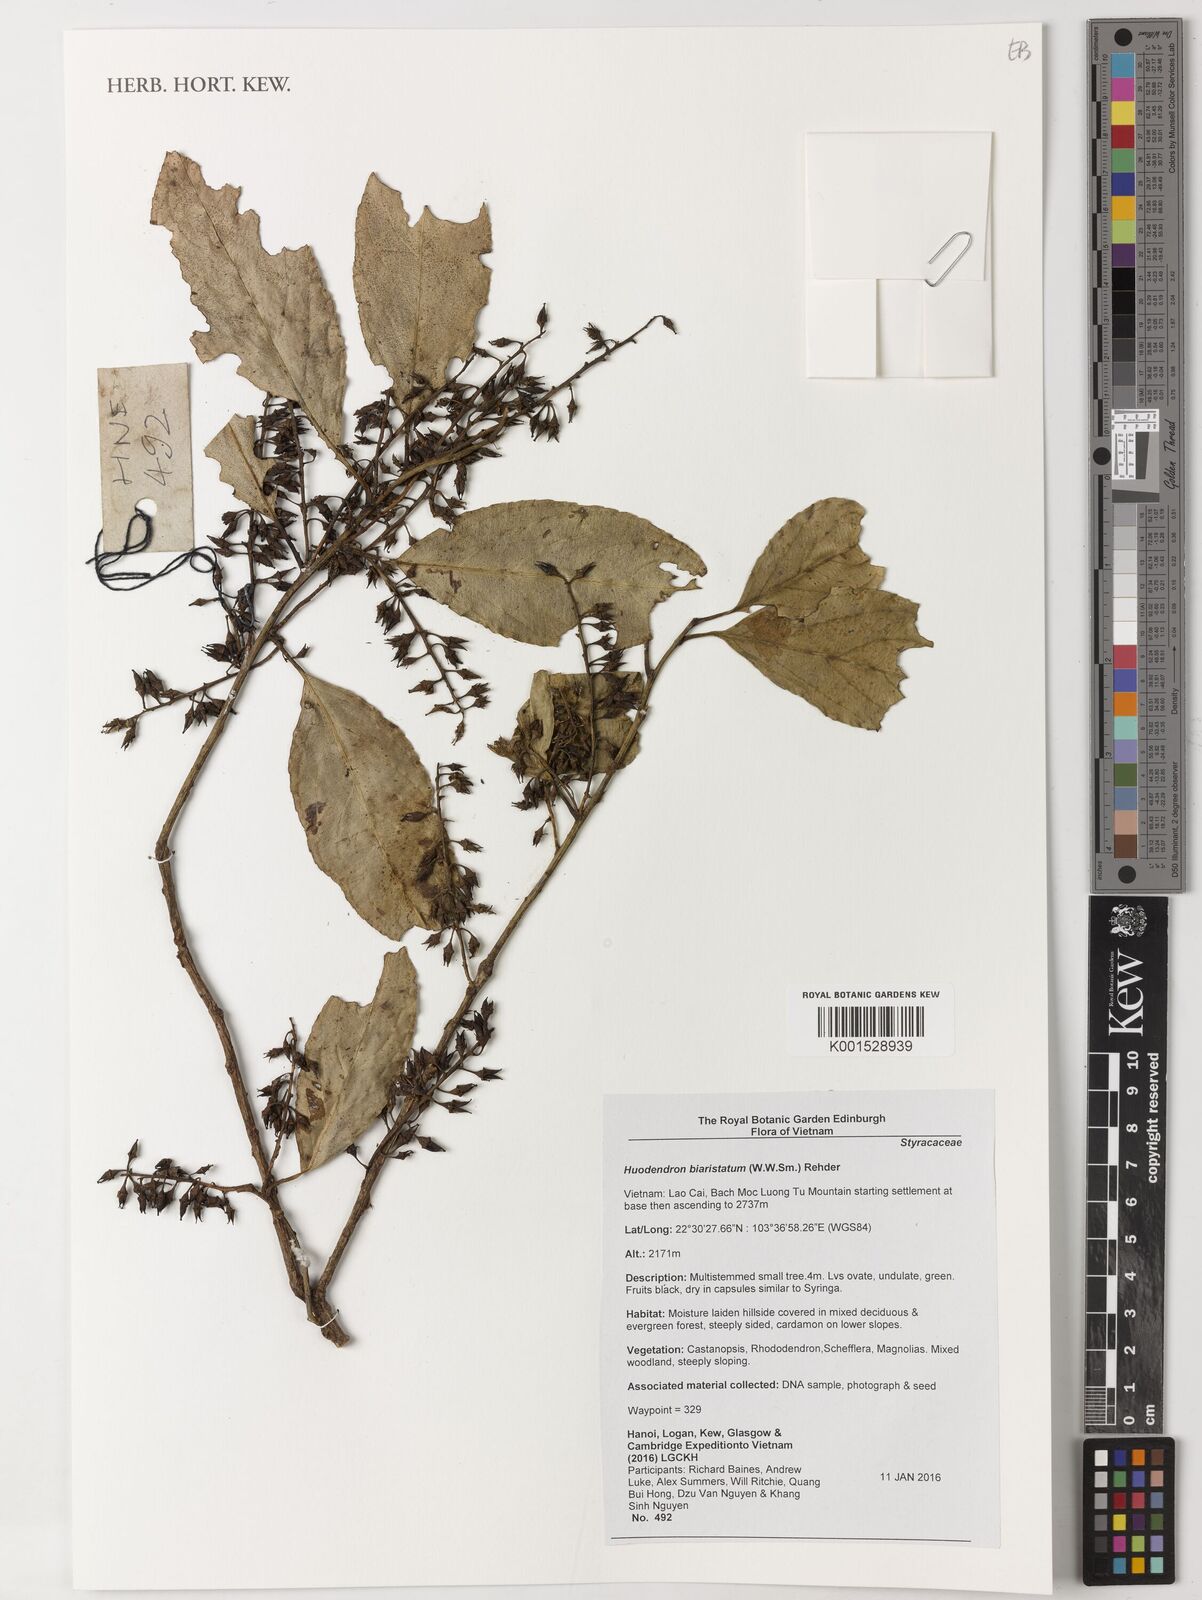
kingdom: Plantae
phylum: Tracheophyta
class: Magnoliopsida
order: Ericales
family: Styracaceae
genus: Huodendron
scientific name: Huodendron biaristatum
